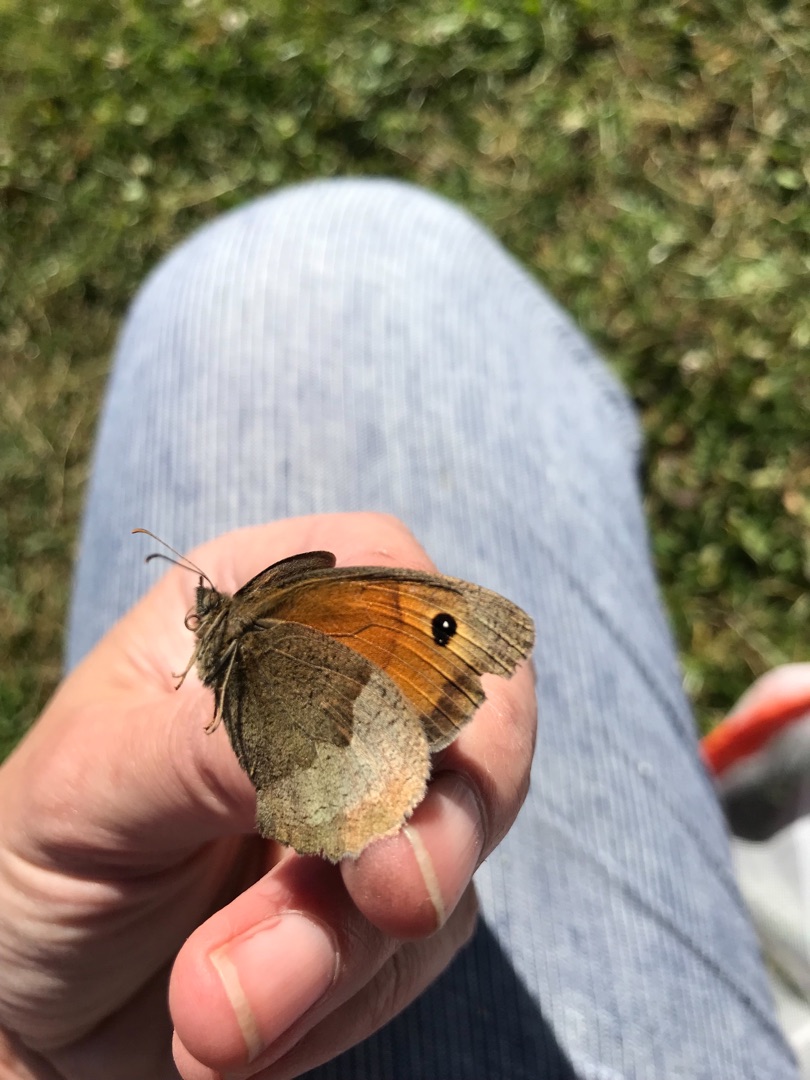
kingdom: Animalia
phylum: Arthropoda
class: Insecta
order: Lepidoptera
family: Nymphalidae
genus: Maniola
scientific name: Maniola jurtina
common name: Græsrandøje
